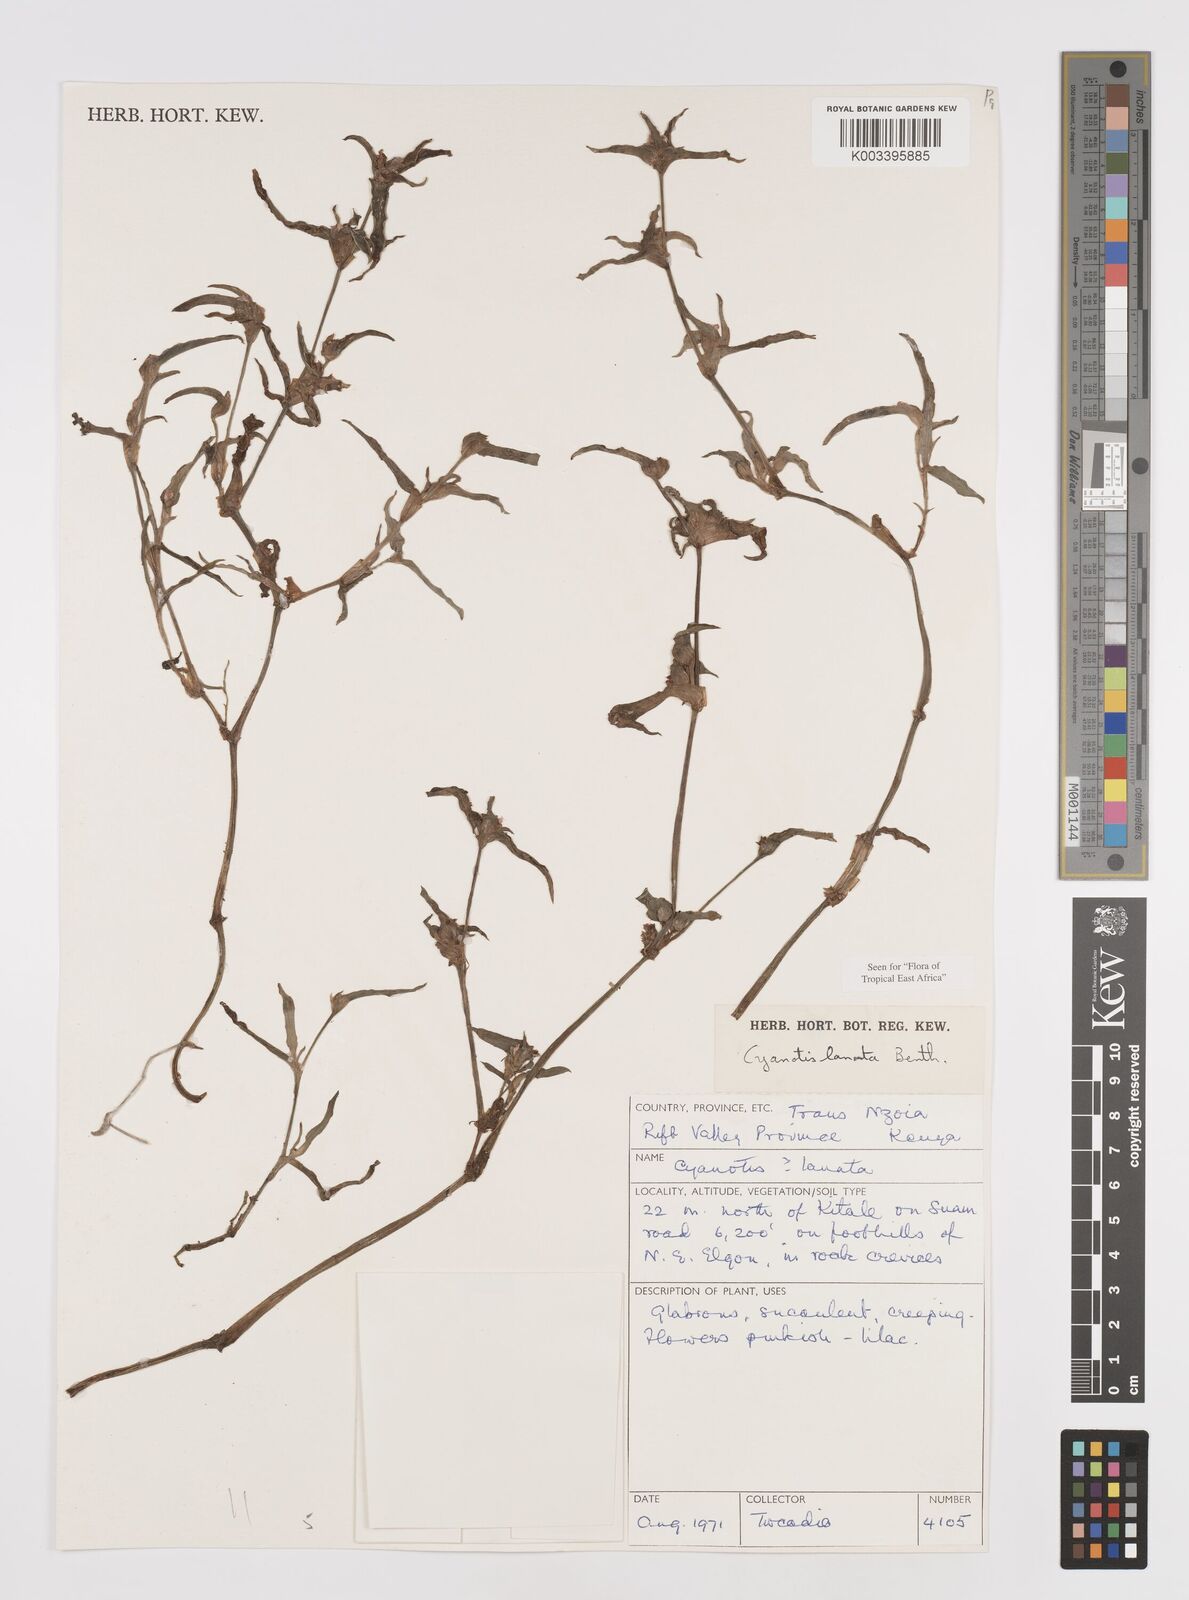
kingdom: Plantae
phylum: Tracheophyta
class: Liliopsida
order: Commelinales
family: Commelinaceae
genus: Cyanotis
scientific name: Cyanotis lanata
